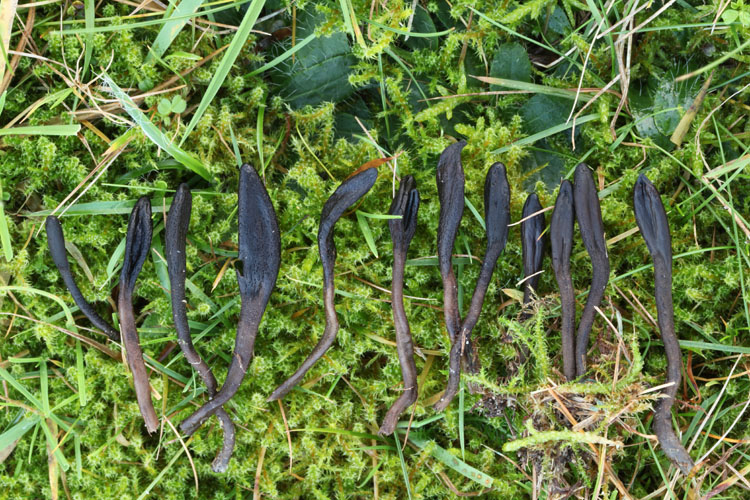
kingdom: Fungi
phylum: Ascomycota
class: Geoglossomycetes
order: Geoglossales
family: Geoglossaceae
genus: Geoglossum
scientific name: Geoglossum fallax
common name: småskællet jordtunge
